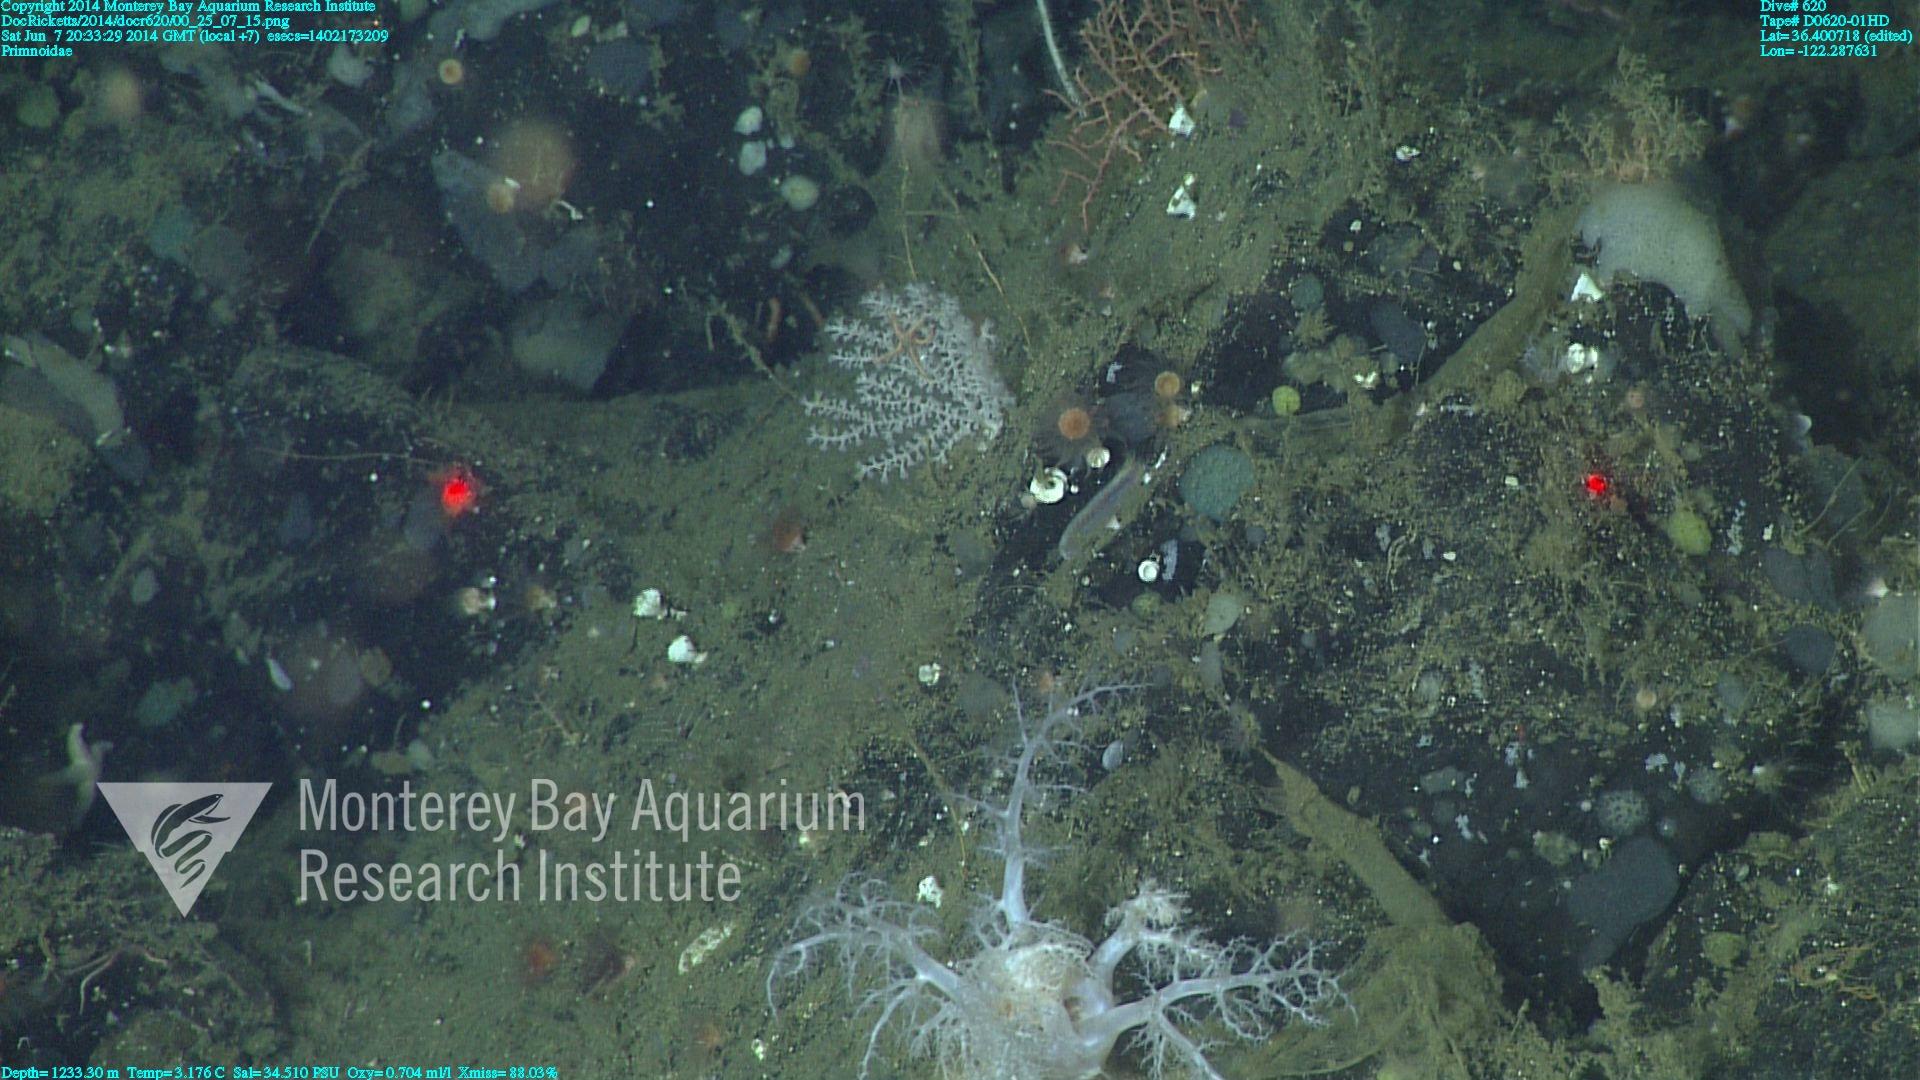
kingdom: Animalia
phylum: Cnidaria
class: Anthozoa
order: Scleralcyonacea
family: Primnoidae
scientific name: Primnoidae
